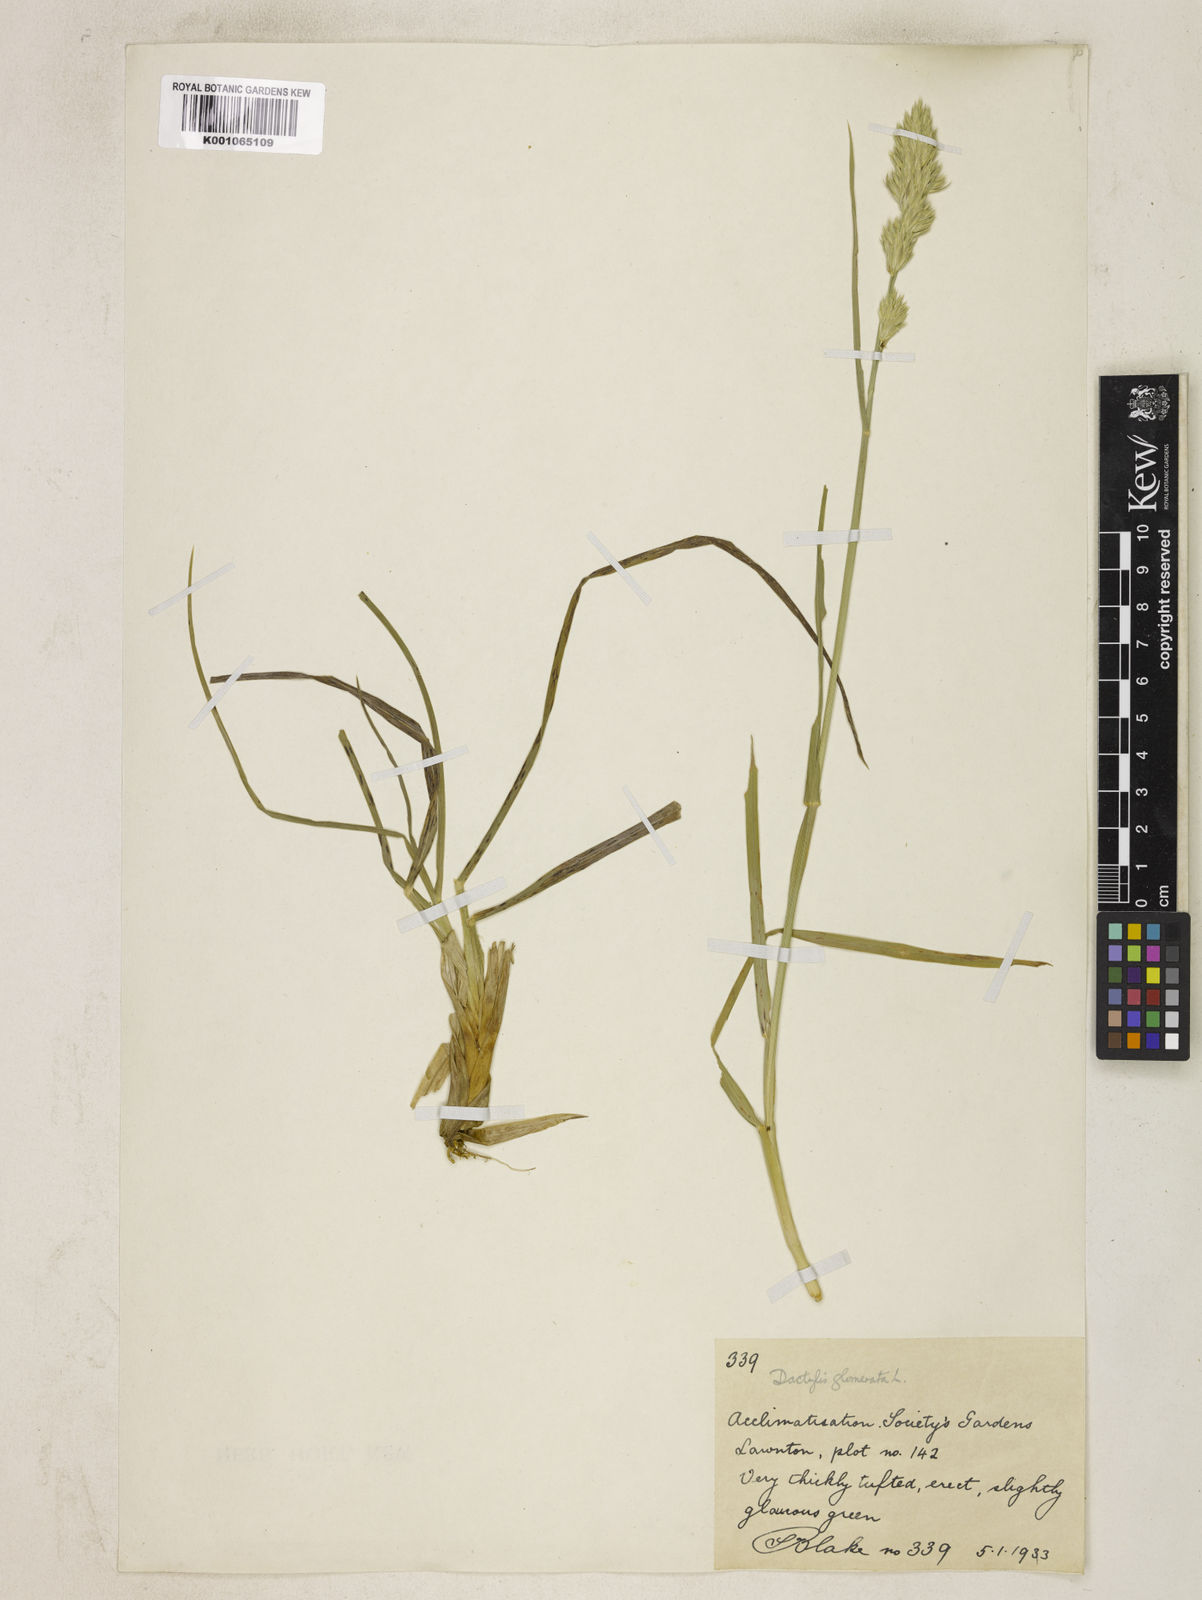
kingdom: Plantae
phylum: Tracheophyta
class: Liliopsida
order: Poales
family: Poaceae
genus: Dactylis
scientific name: Dactylis glomerata
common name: Orchardgrass
